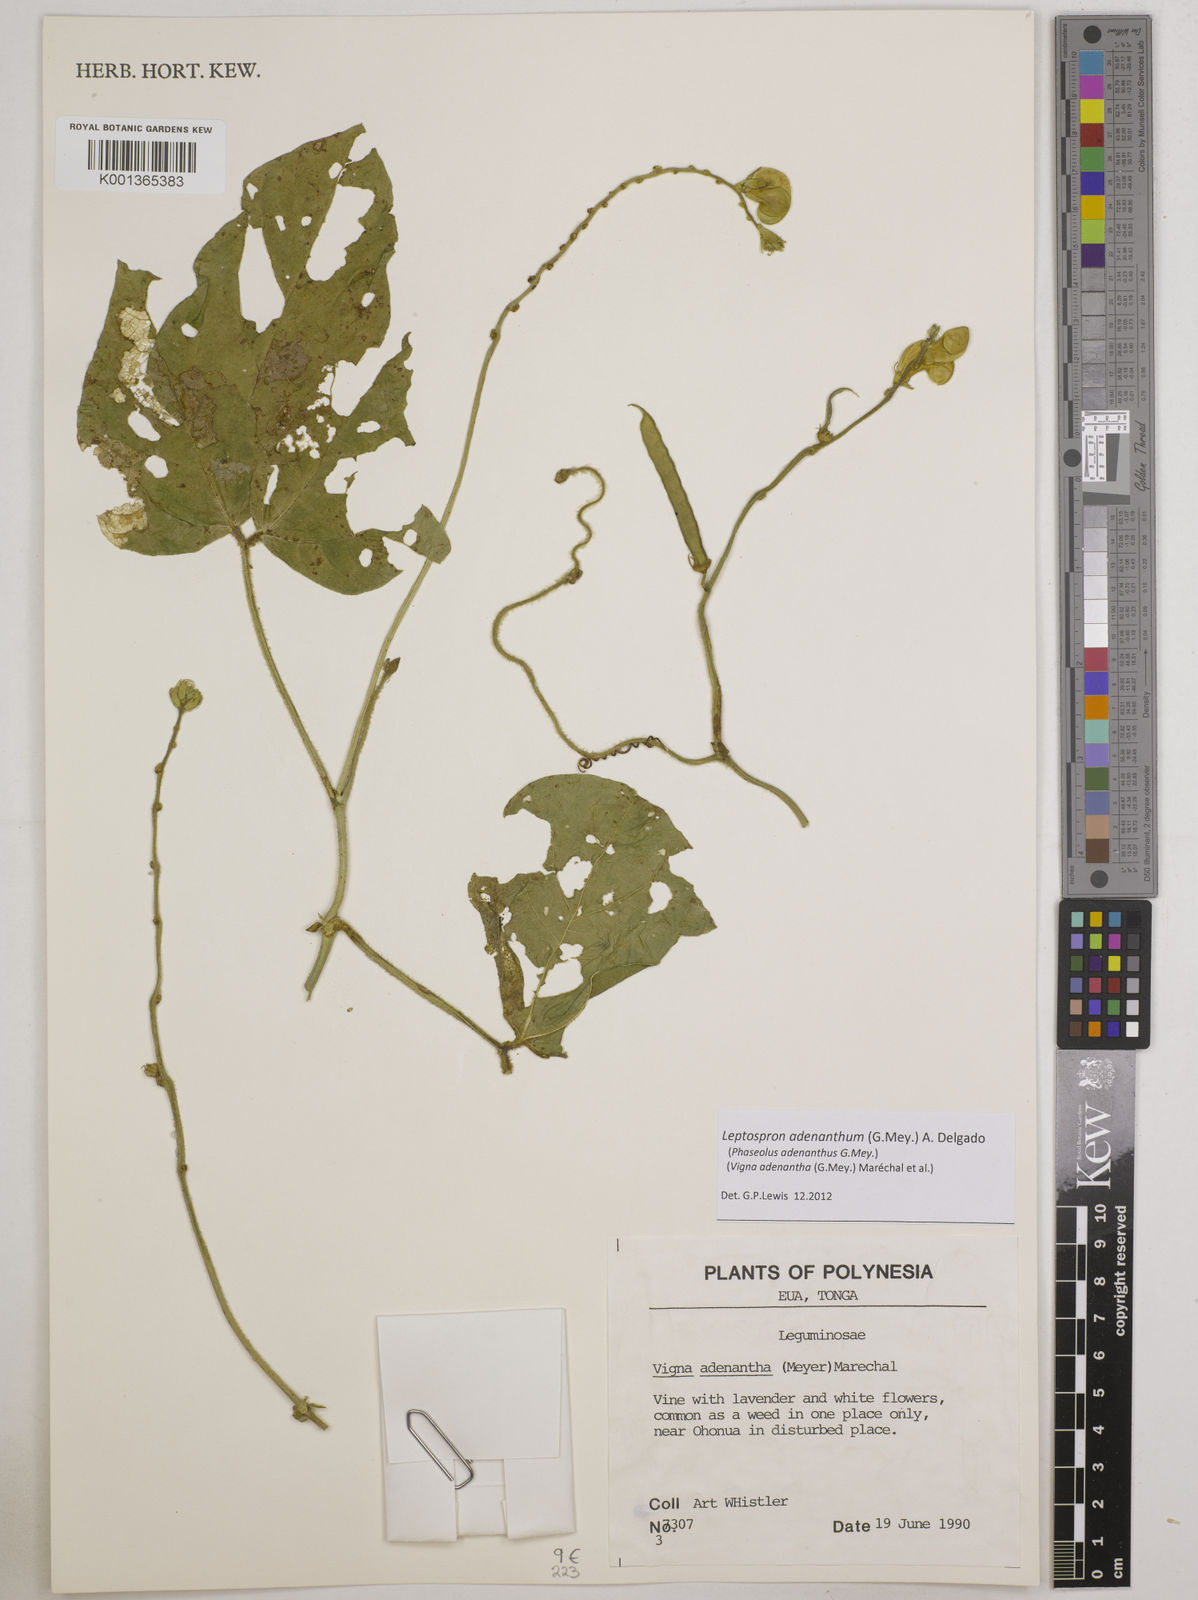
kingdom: Plantae
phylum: Tracheophyta
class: Magnoliopsida
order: Fabales
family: Fabaceae
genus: Leptospron
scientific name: Leptospron adenanthum
